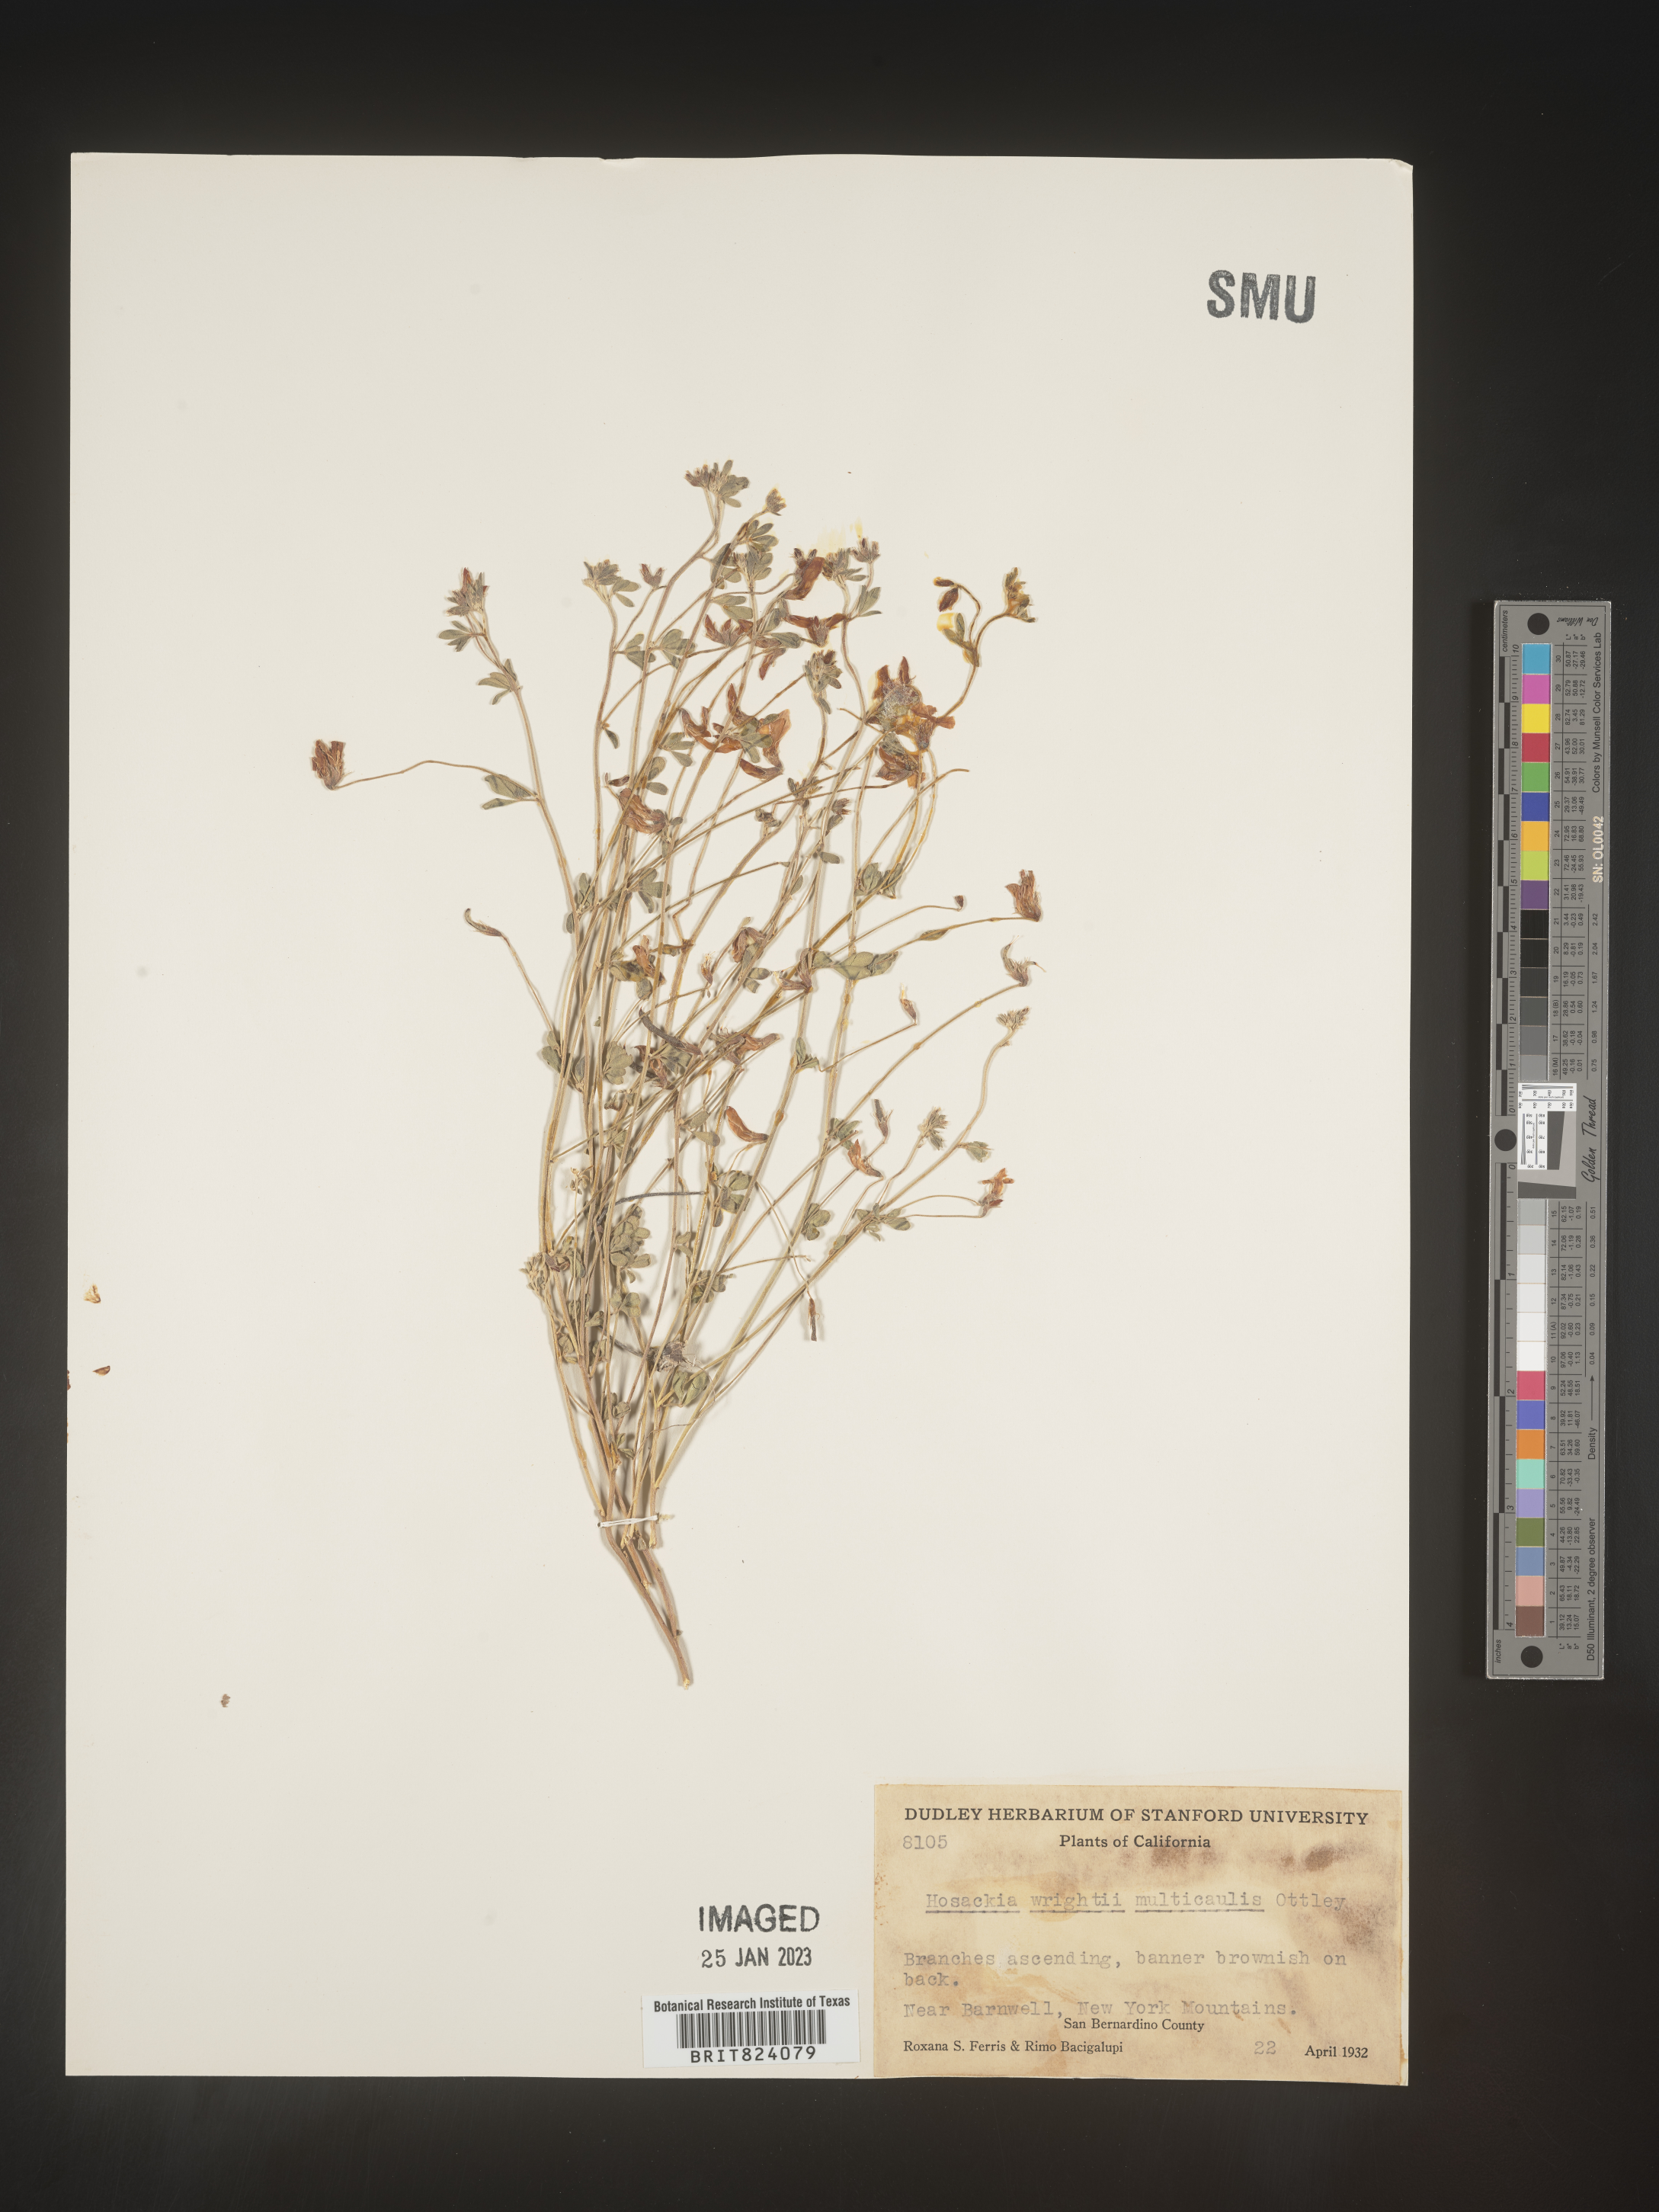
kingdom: Plantae
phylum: Tracheophyta
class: Magnoliopsida
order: Fabales
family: Fabaceae
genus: Acmispon
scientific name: Acmispon wrightii
